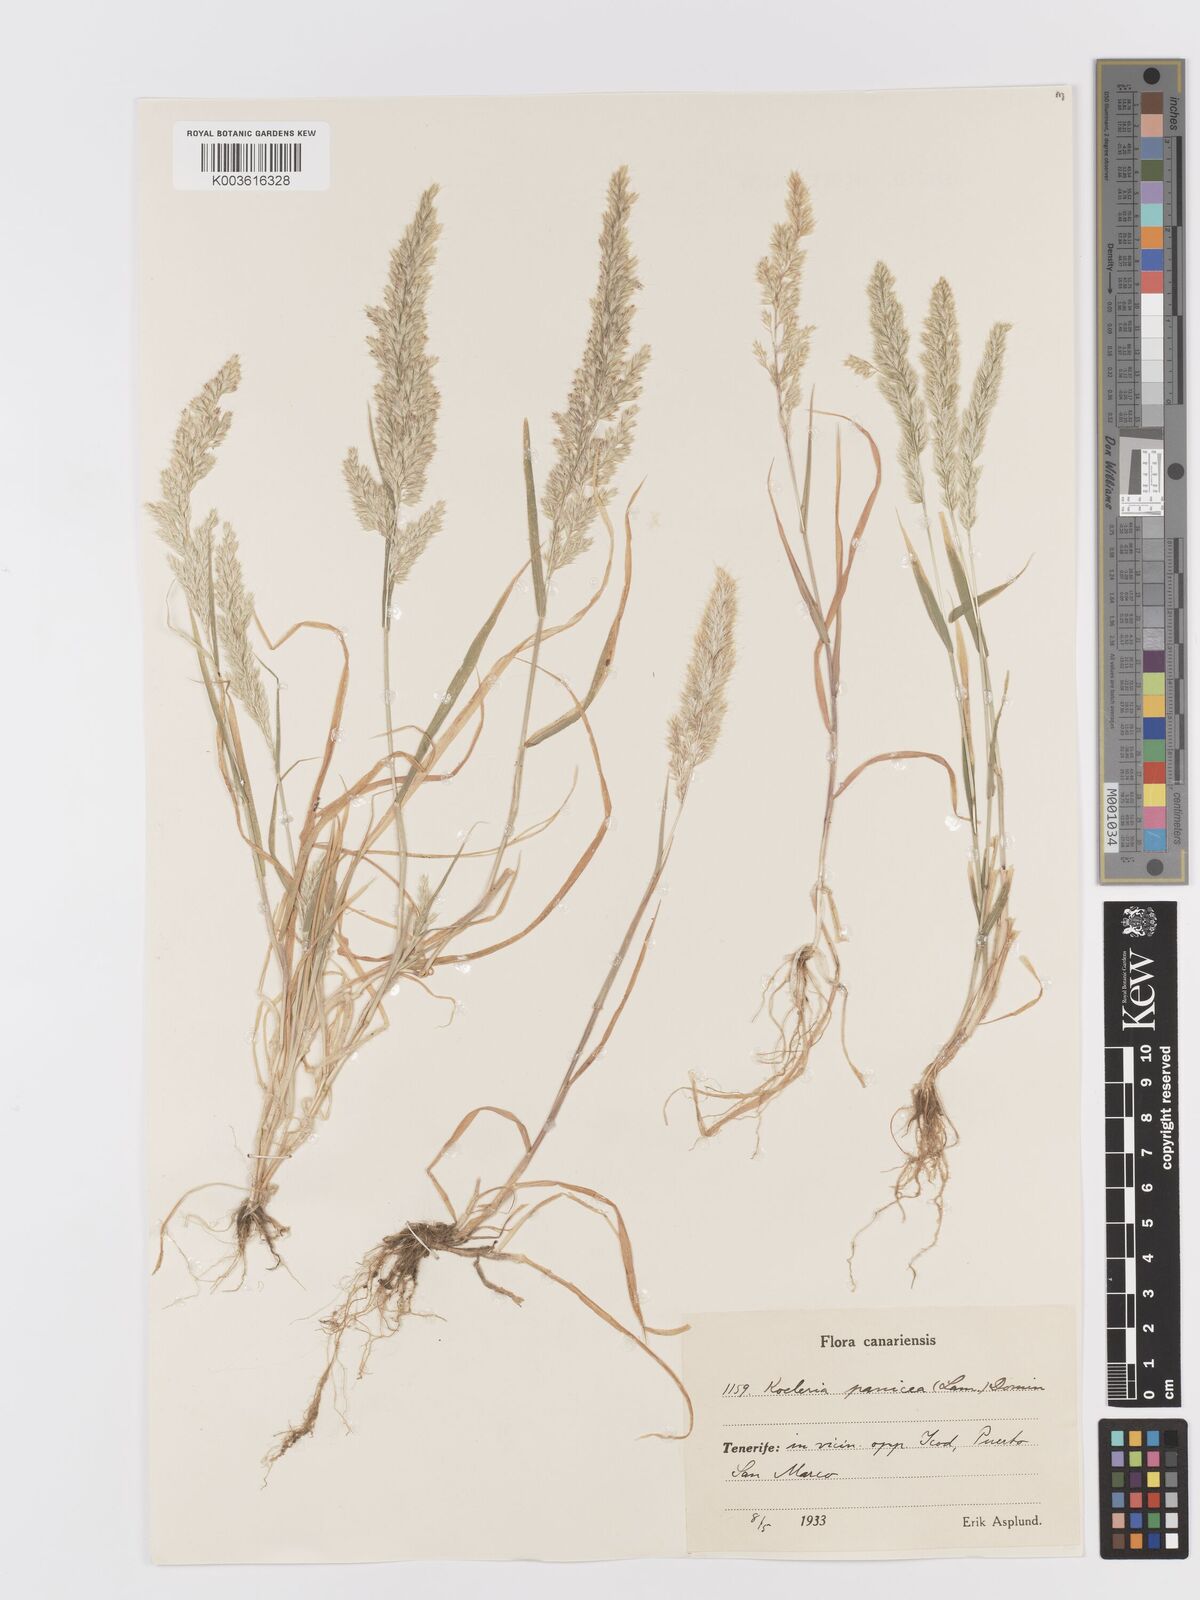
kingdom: Plantae
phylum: Tracheophyta
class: Liliopsida
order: Poales
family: Poaceae
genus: Trisetaria
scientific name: Trisetaria panicea
